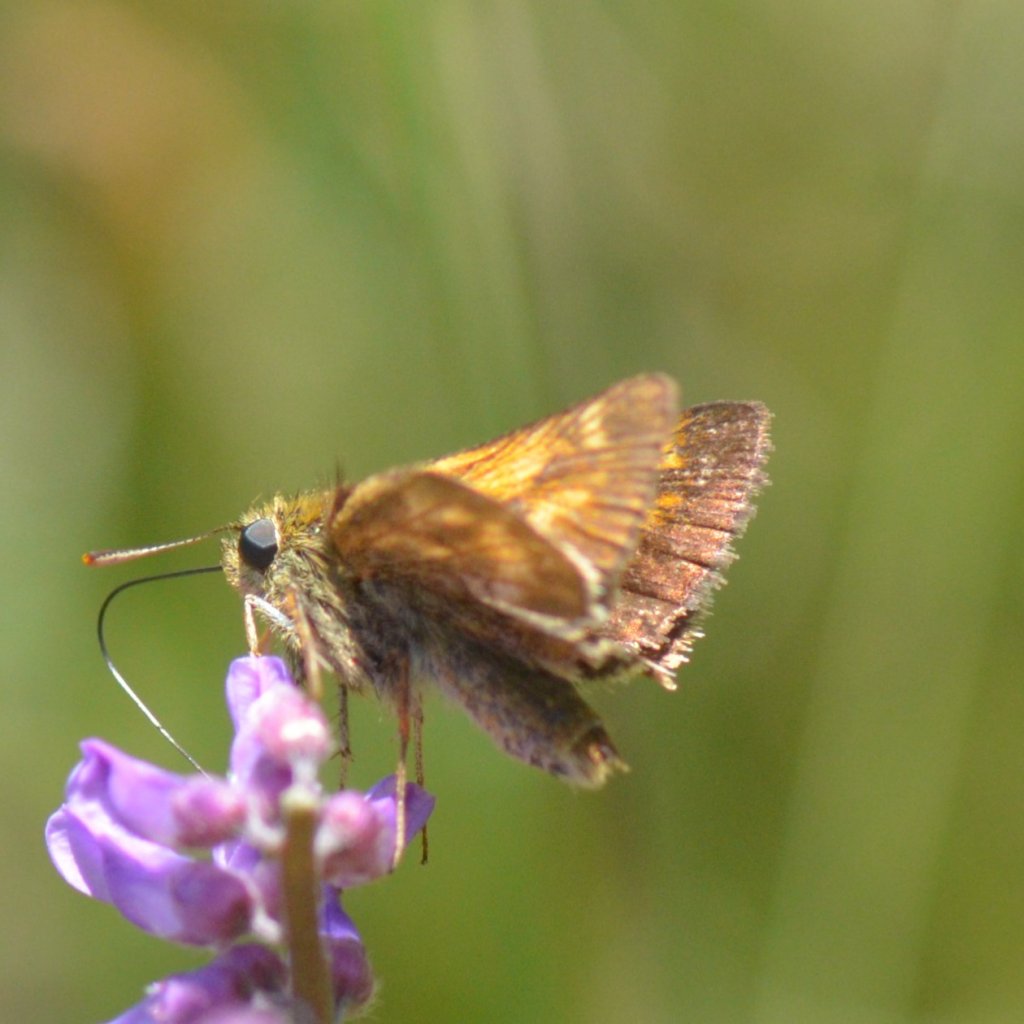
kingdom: Animalia
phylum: Arthropoda
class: Insecta
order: Lepidoptera
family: Hesperiidae
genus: Polites
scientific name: Polites
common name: Long Dash Skipper
